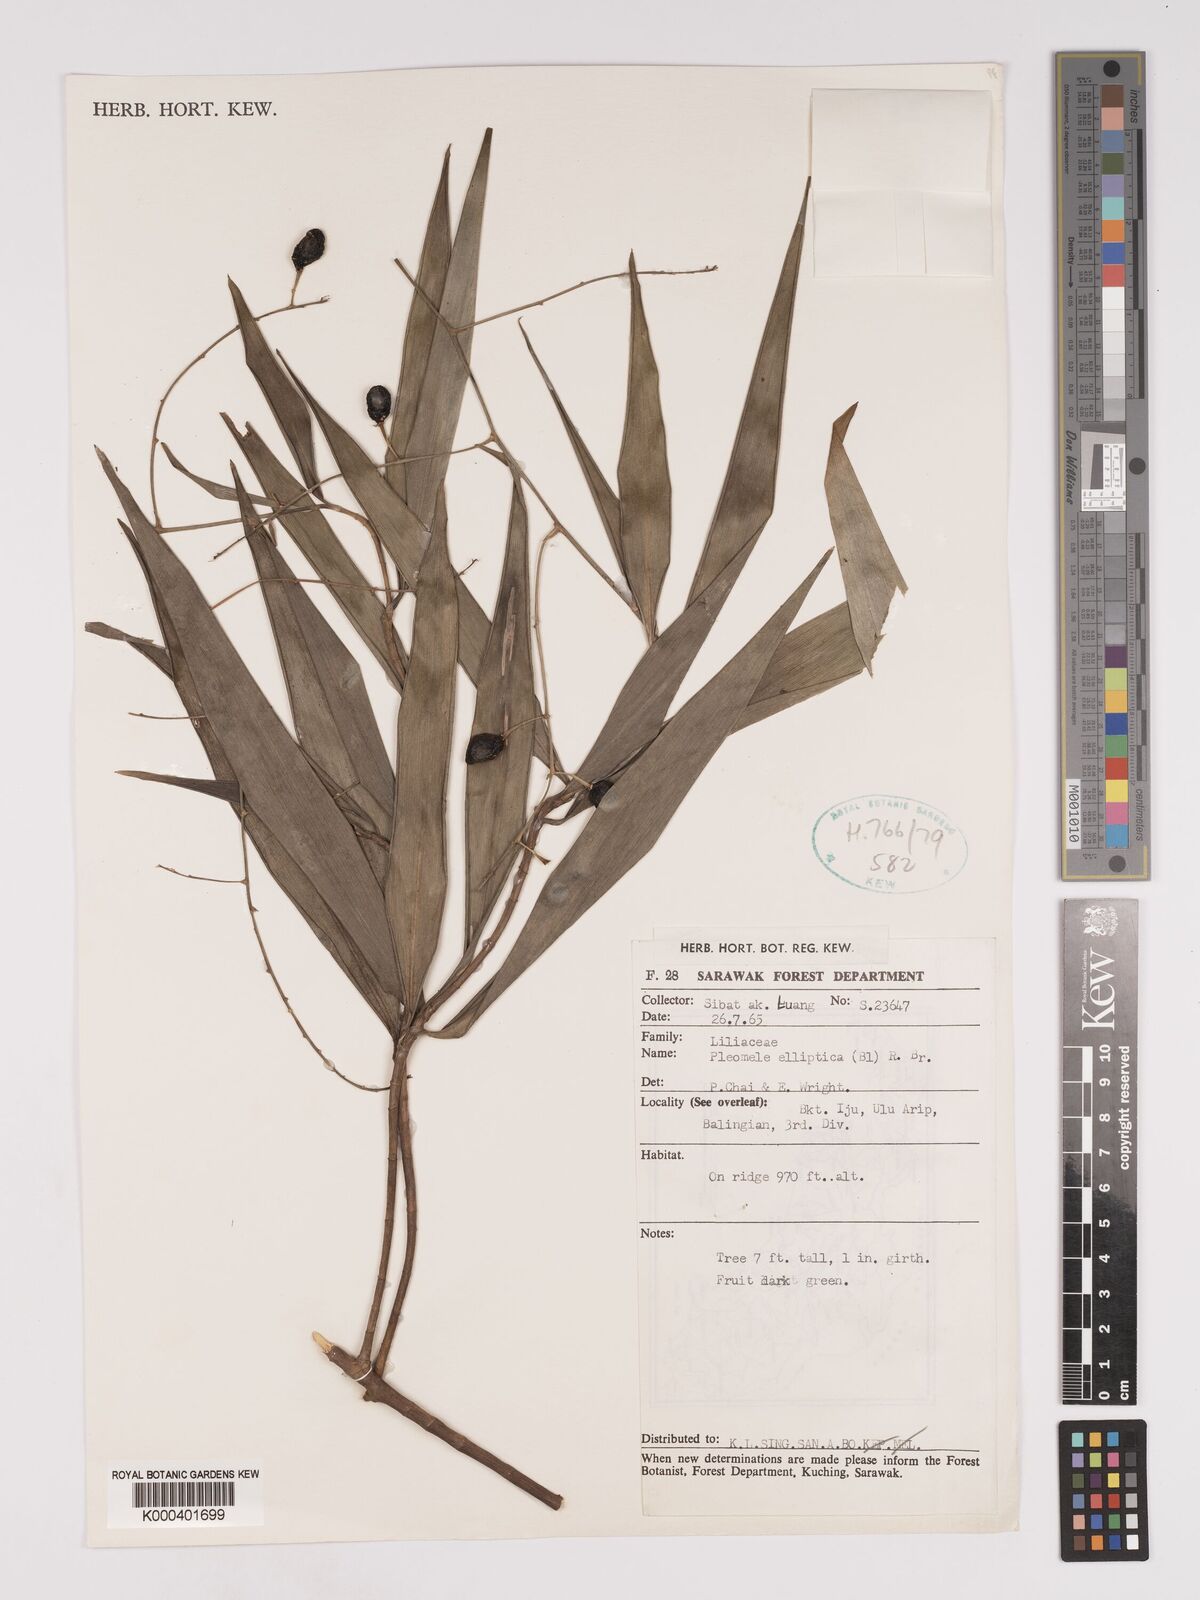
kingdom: Plantae
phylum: Tracheophyta
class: Liliopsida
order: Asparagales
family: Asparagaceae
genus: Dracaena
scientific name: Dracaena elliptica
